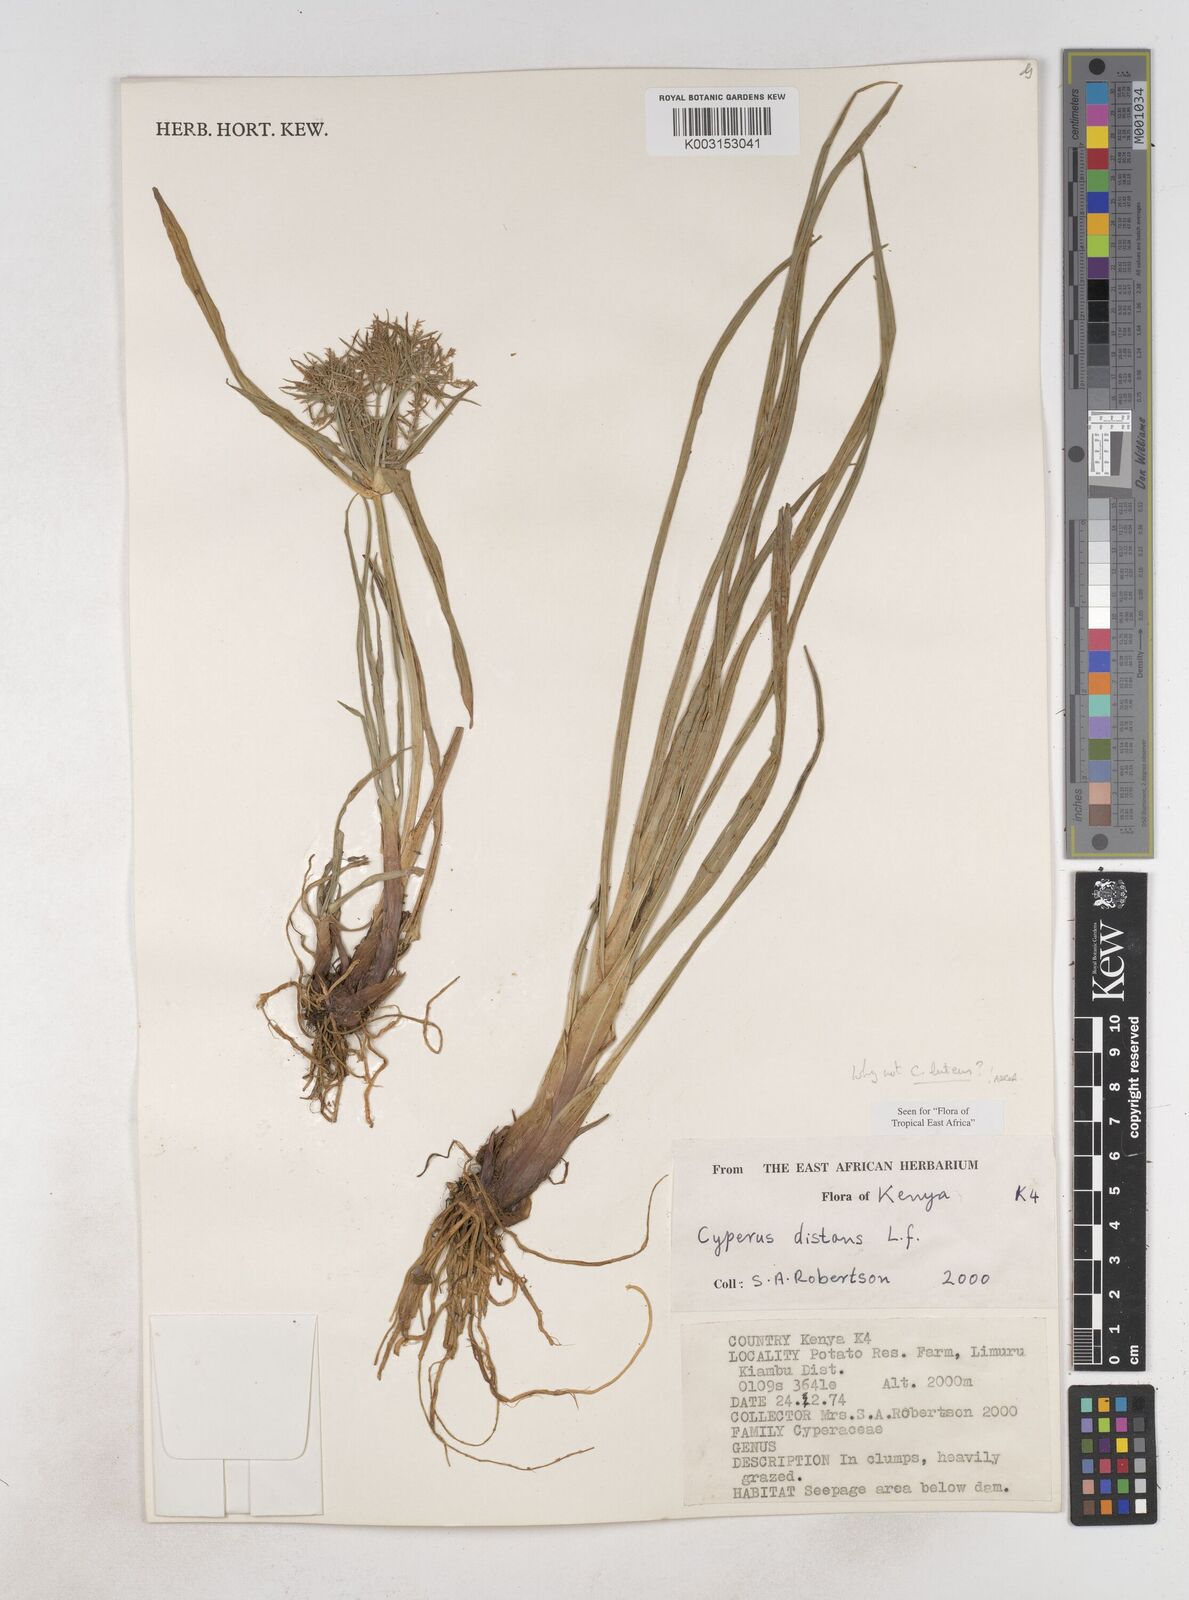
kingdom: Plantae
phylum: Tracheophyta
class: Liliopsida
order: Poales
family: Cyperaceae
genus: Cyperus
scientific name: Cyperus distans
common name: Slender cyperus
